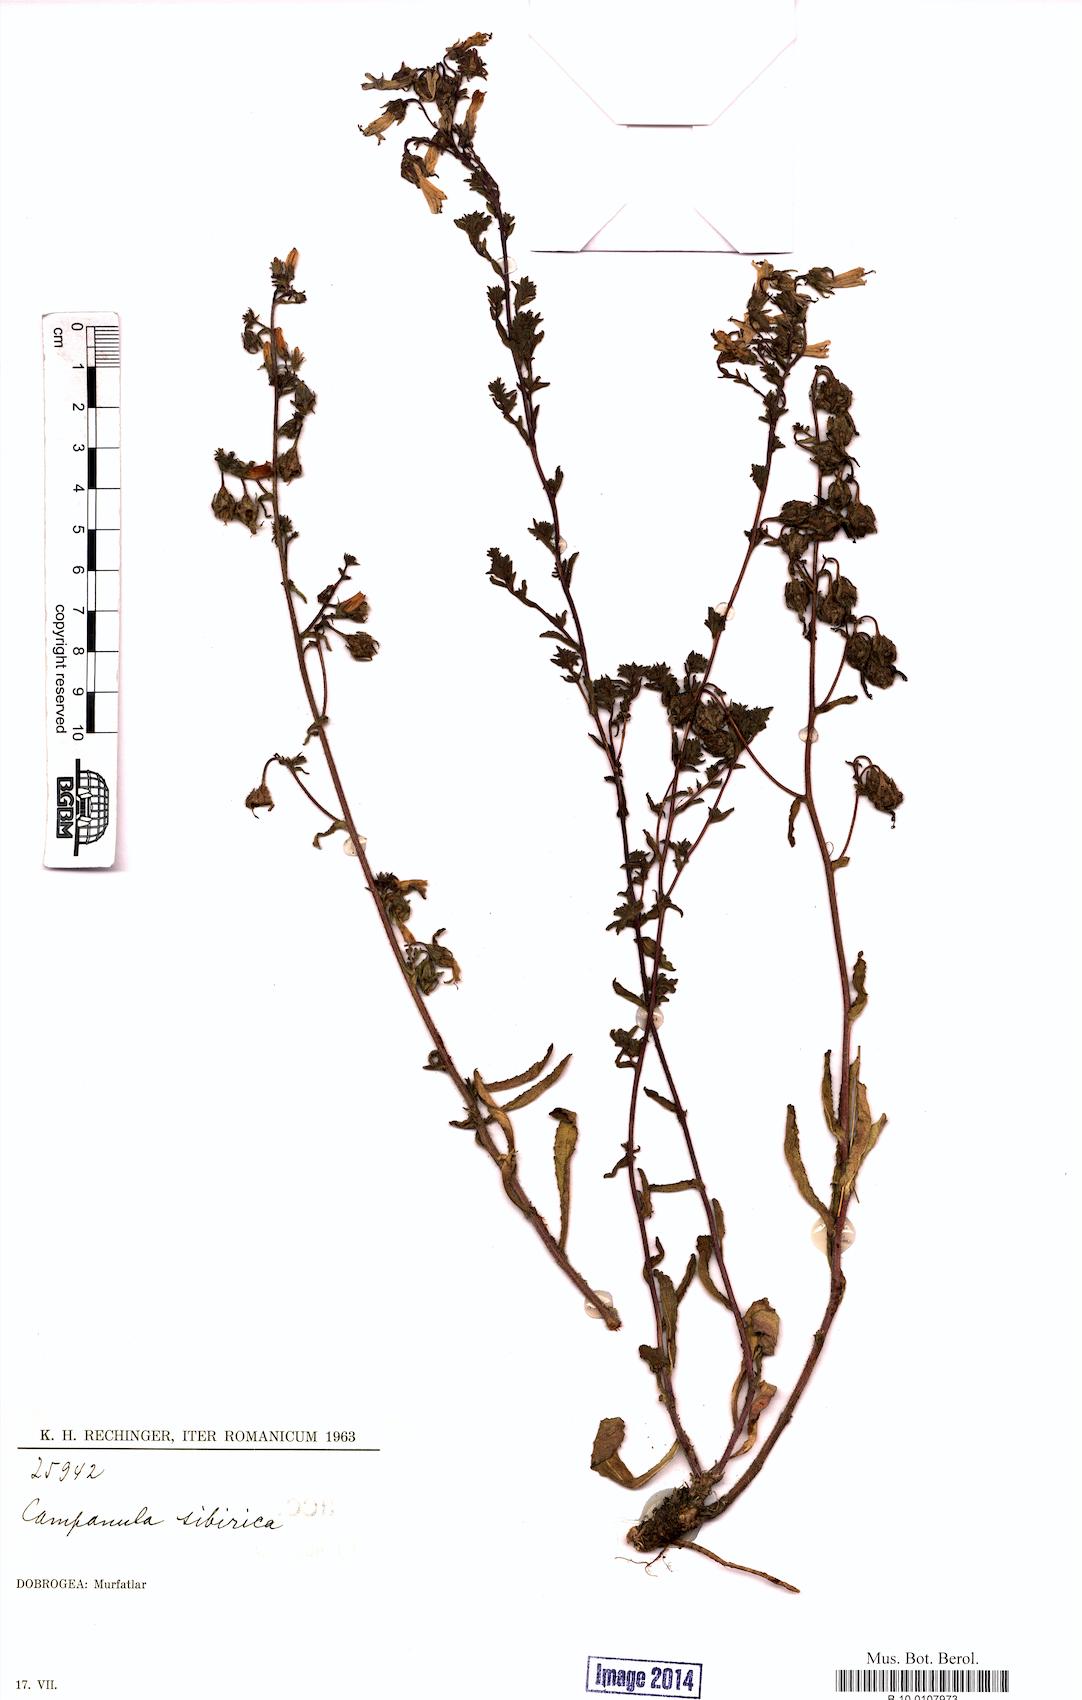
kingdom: Plantae
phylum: Tracheophyta
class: Magnoliopsida
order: Asterales
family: Campanulaceae
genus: Campanula
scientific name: Campanula sibirica
